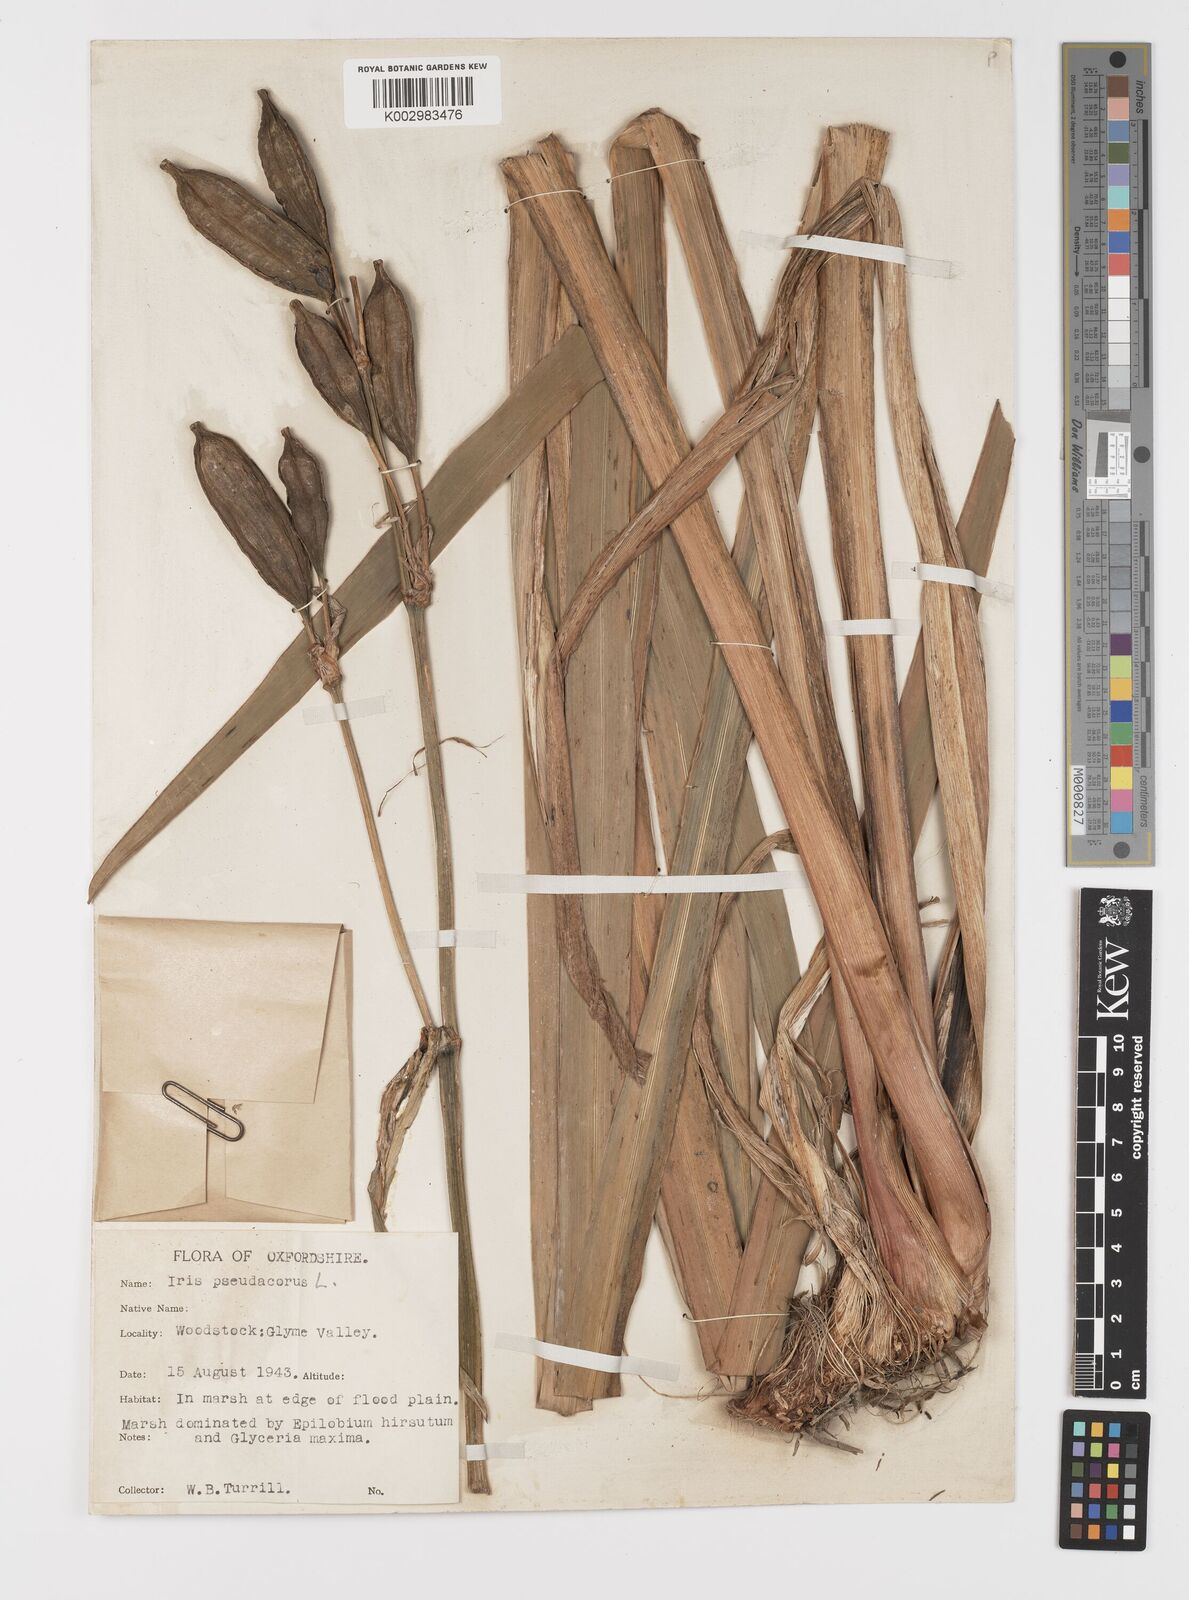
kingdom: Plantae
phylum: Tracheophyta
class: Liliopsida
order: Asparagales
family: Iridaceae
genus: Iris
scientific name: Iris pseudacorus
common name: Yellow flag
